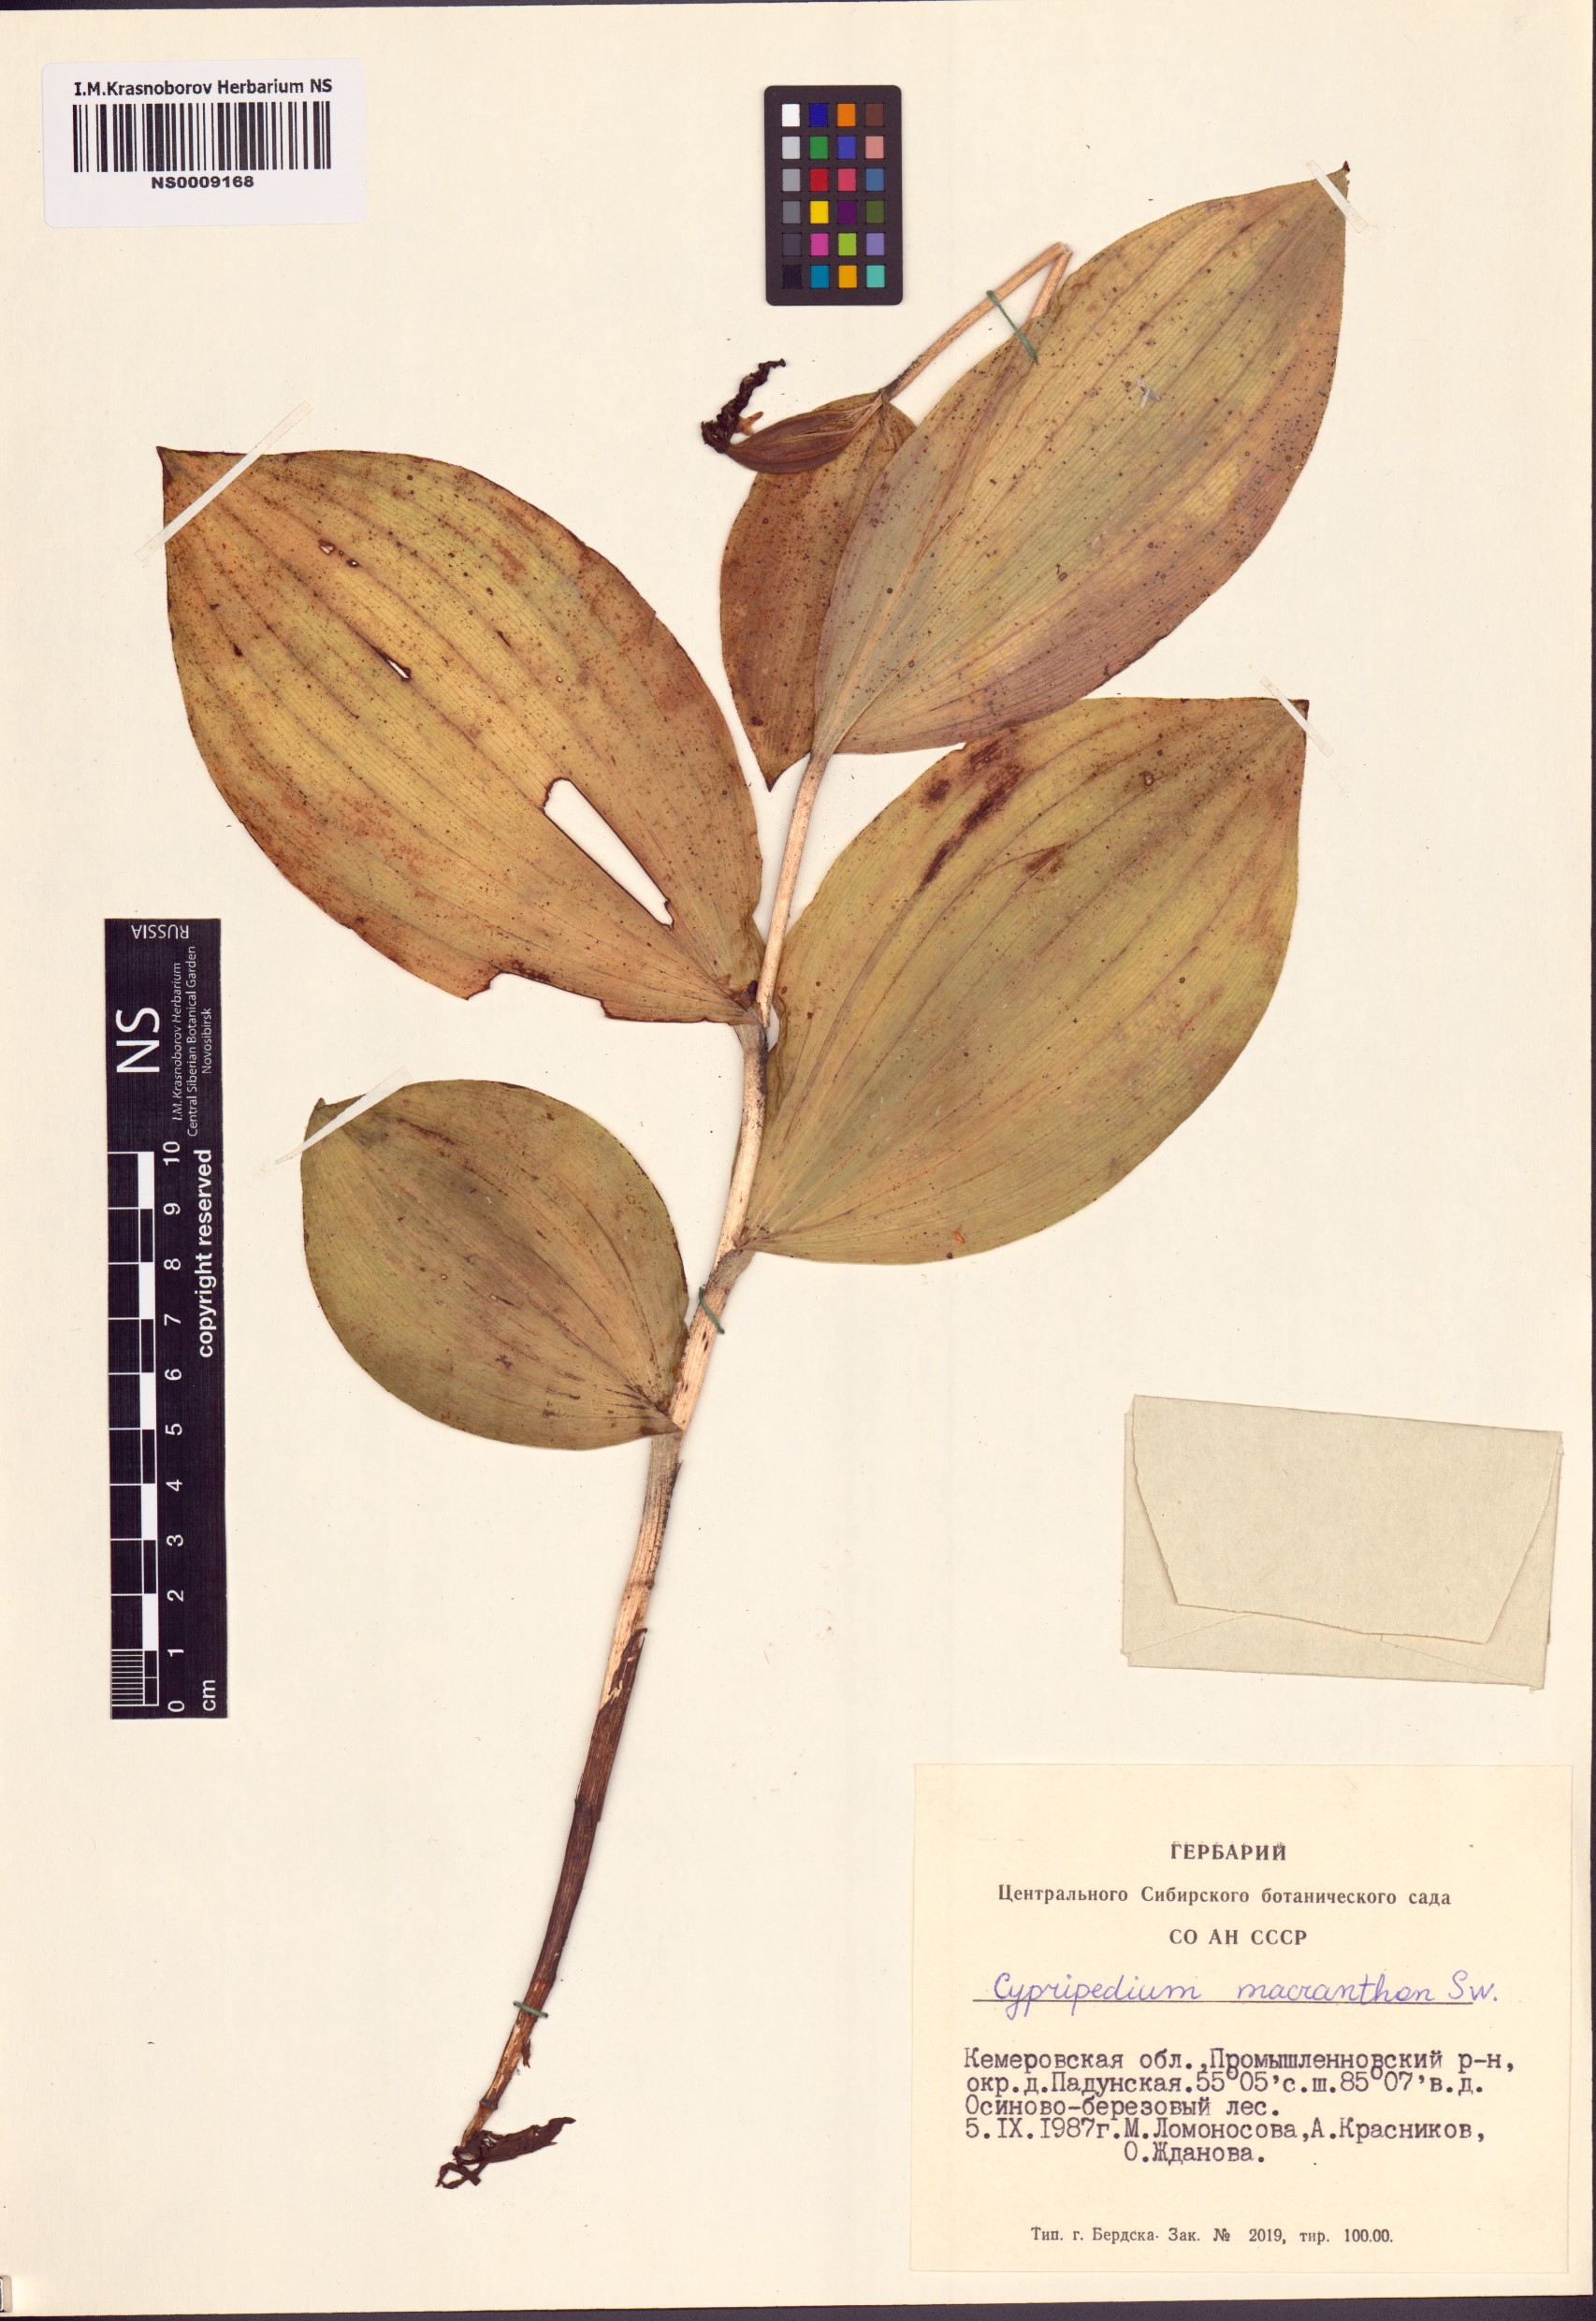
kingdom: Plantae
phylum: Tracheophyta
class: Liliopsida
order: Asparagales
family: Orchidaceae
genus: Cypripedium
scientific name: Cypripedium macranthos
